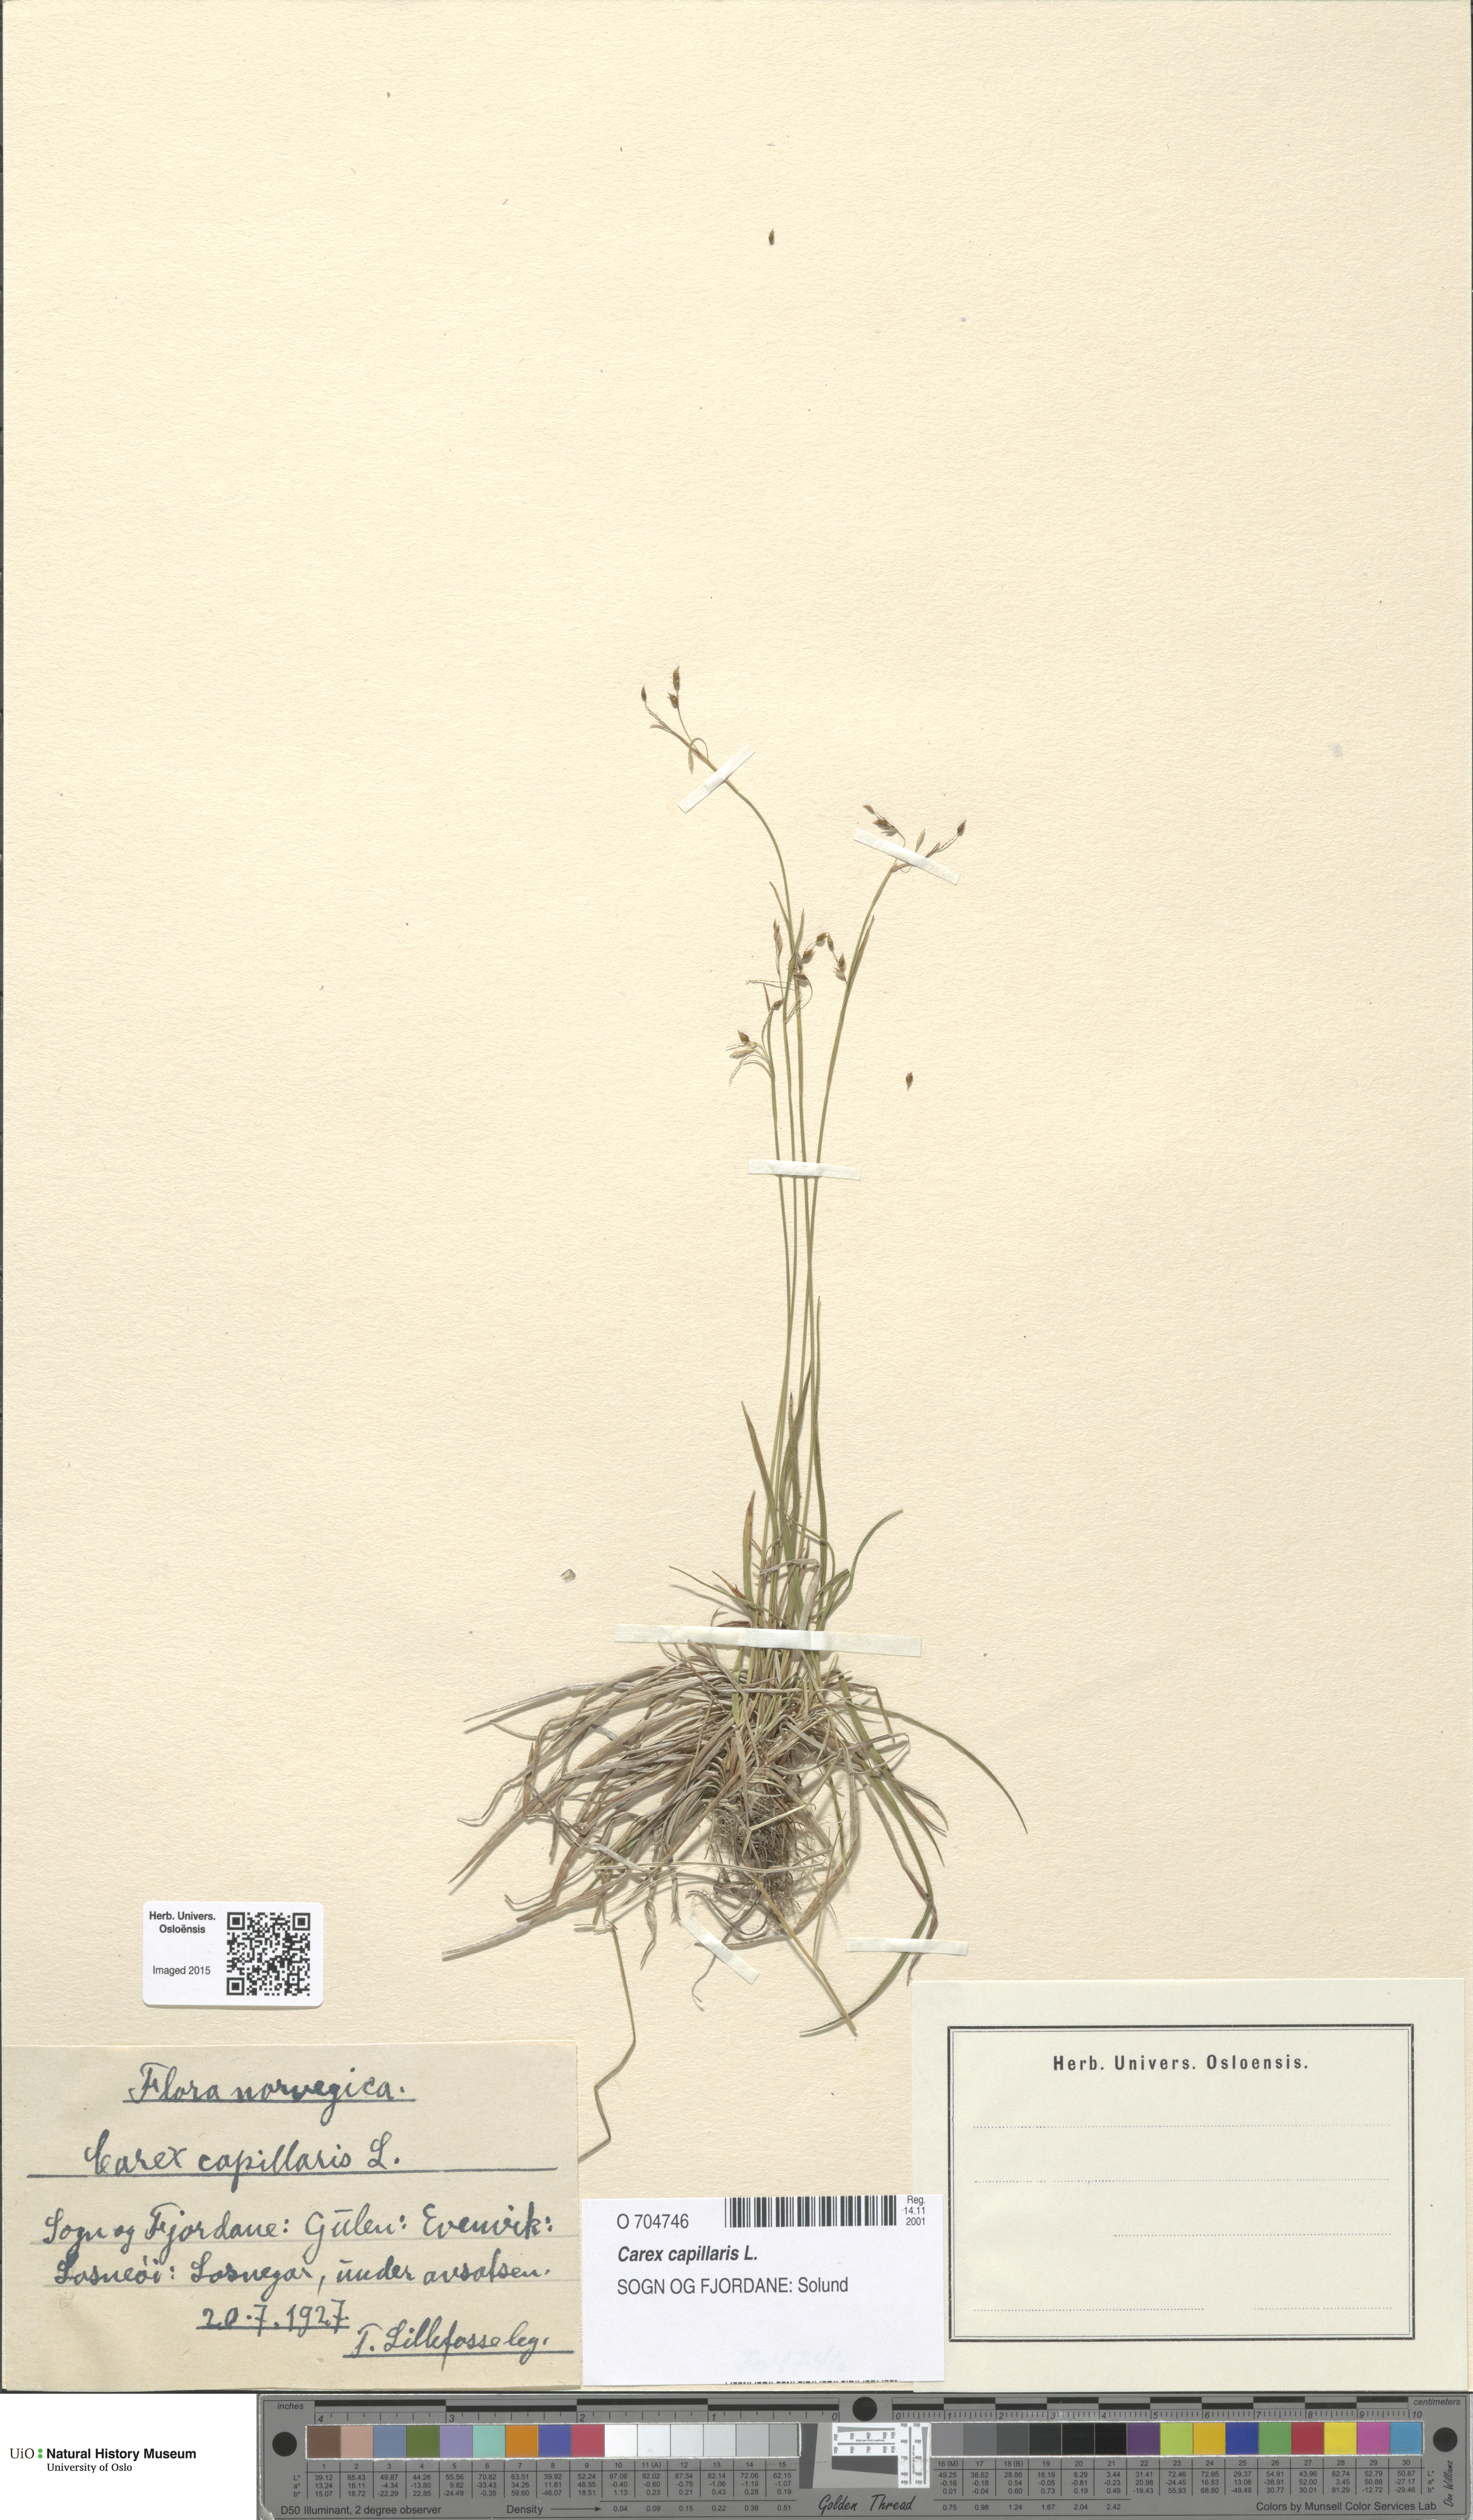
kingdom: Plantae
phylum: Tracheophyta
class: Liliopsida
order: Poales
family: Cyperaceae
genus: Carex
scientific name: Carex capillaris
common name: Hair sedge
